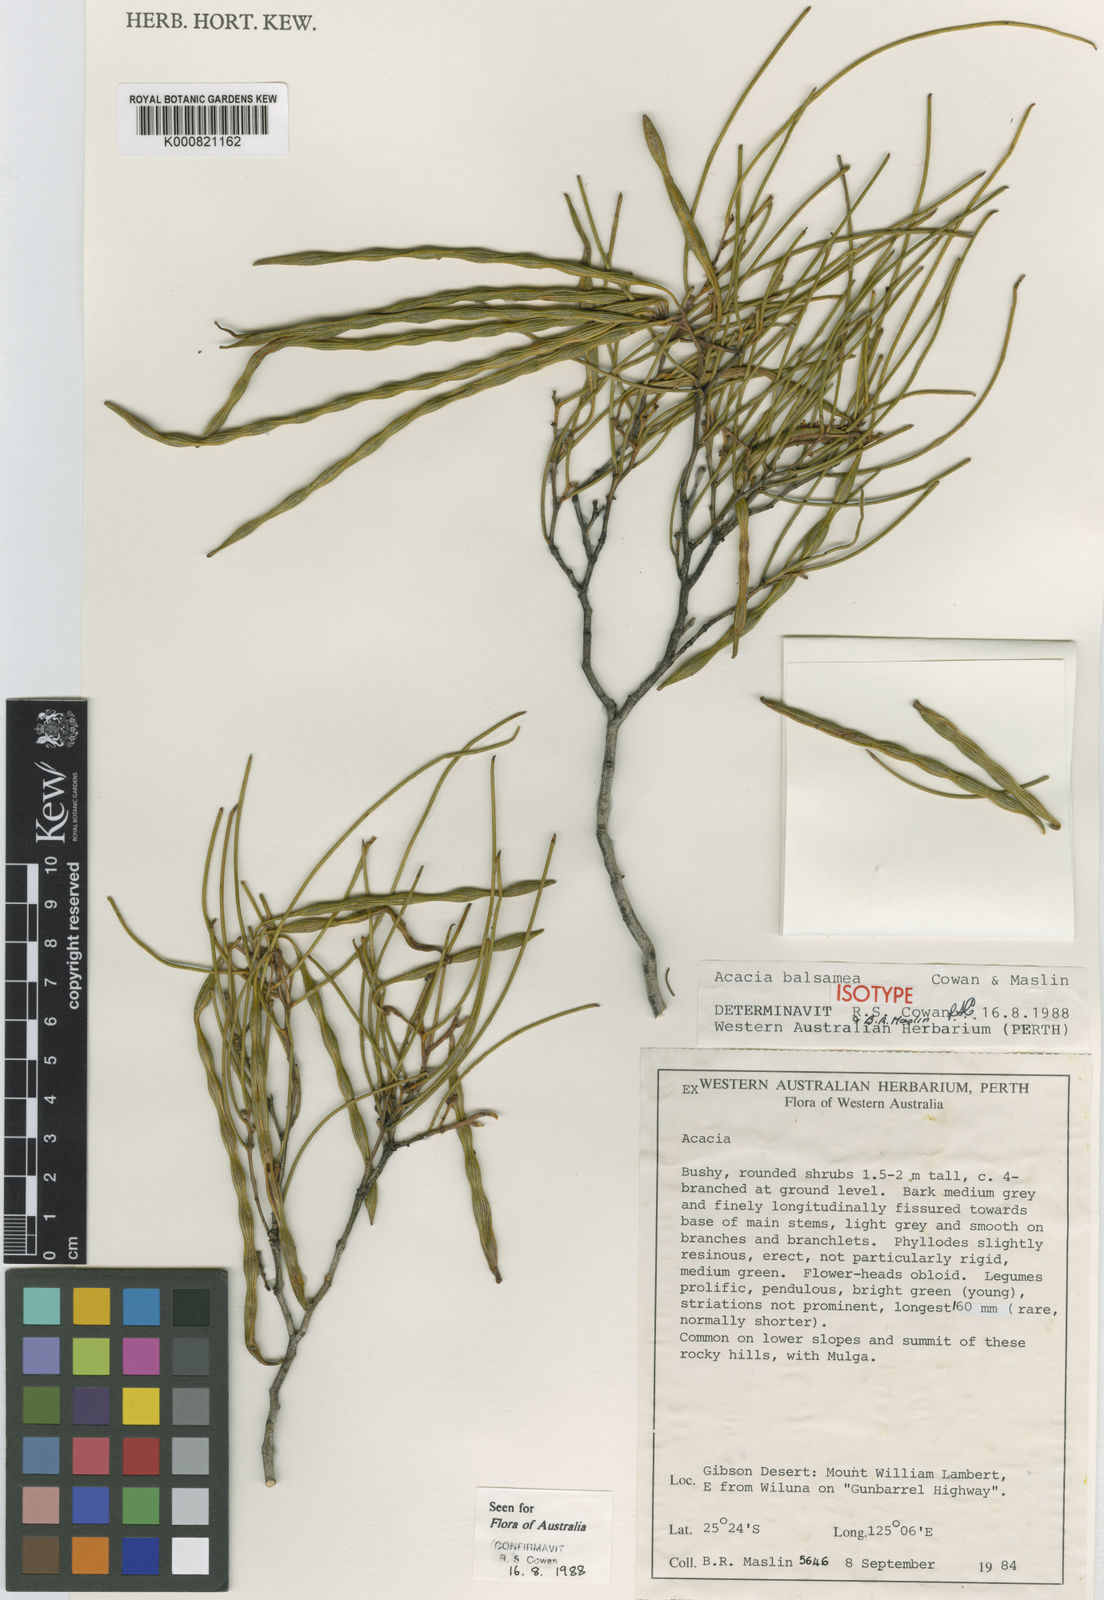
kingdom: Plantae
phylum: Tracheophyta
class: Magnoliopsida
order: Fabales
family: Fabaceae
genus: Acacia
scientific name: Acacia balsamea
